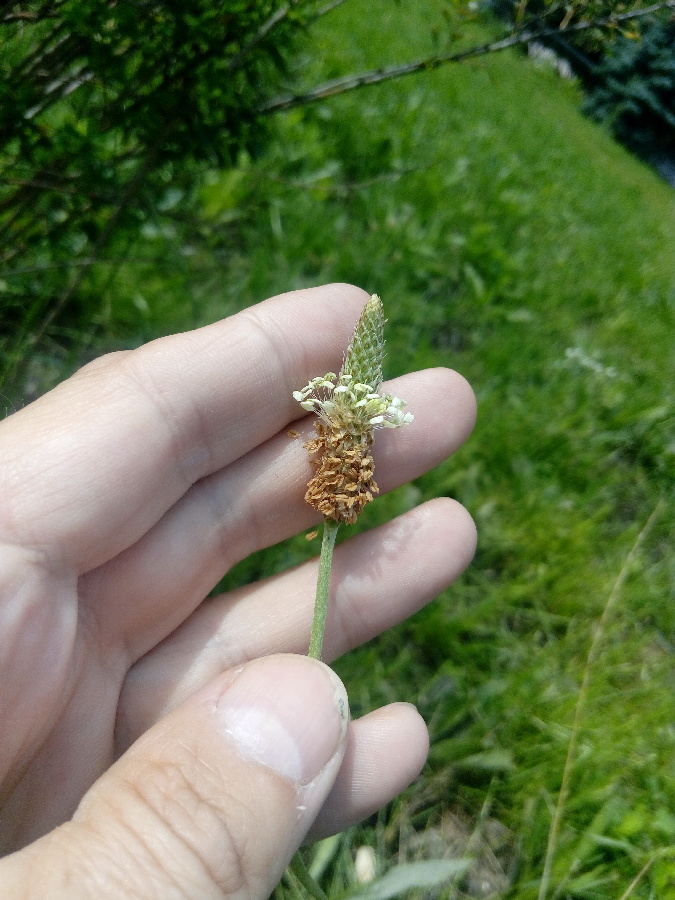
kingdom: Plantae
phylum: Tracheophyta
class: Magnoliopsida
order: Lamiales
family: Plantaginaceae
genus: Plantago
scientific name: Plantago lanceolata
